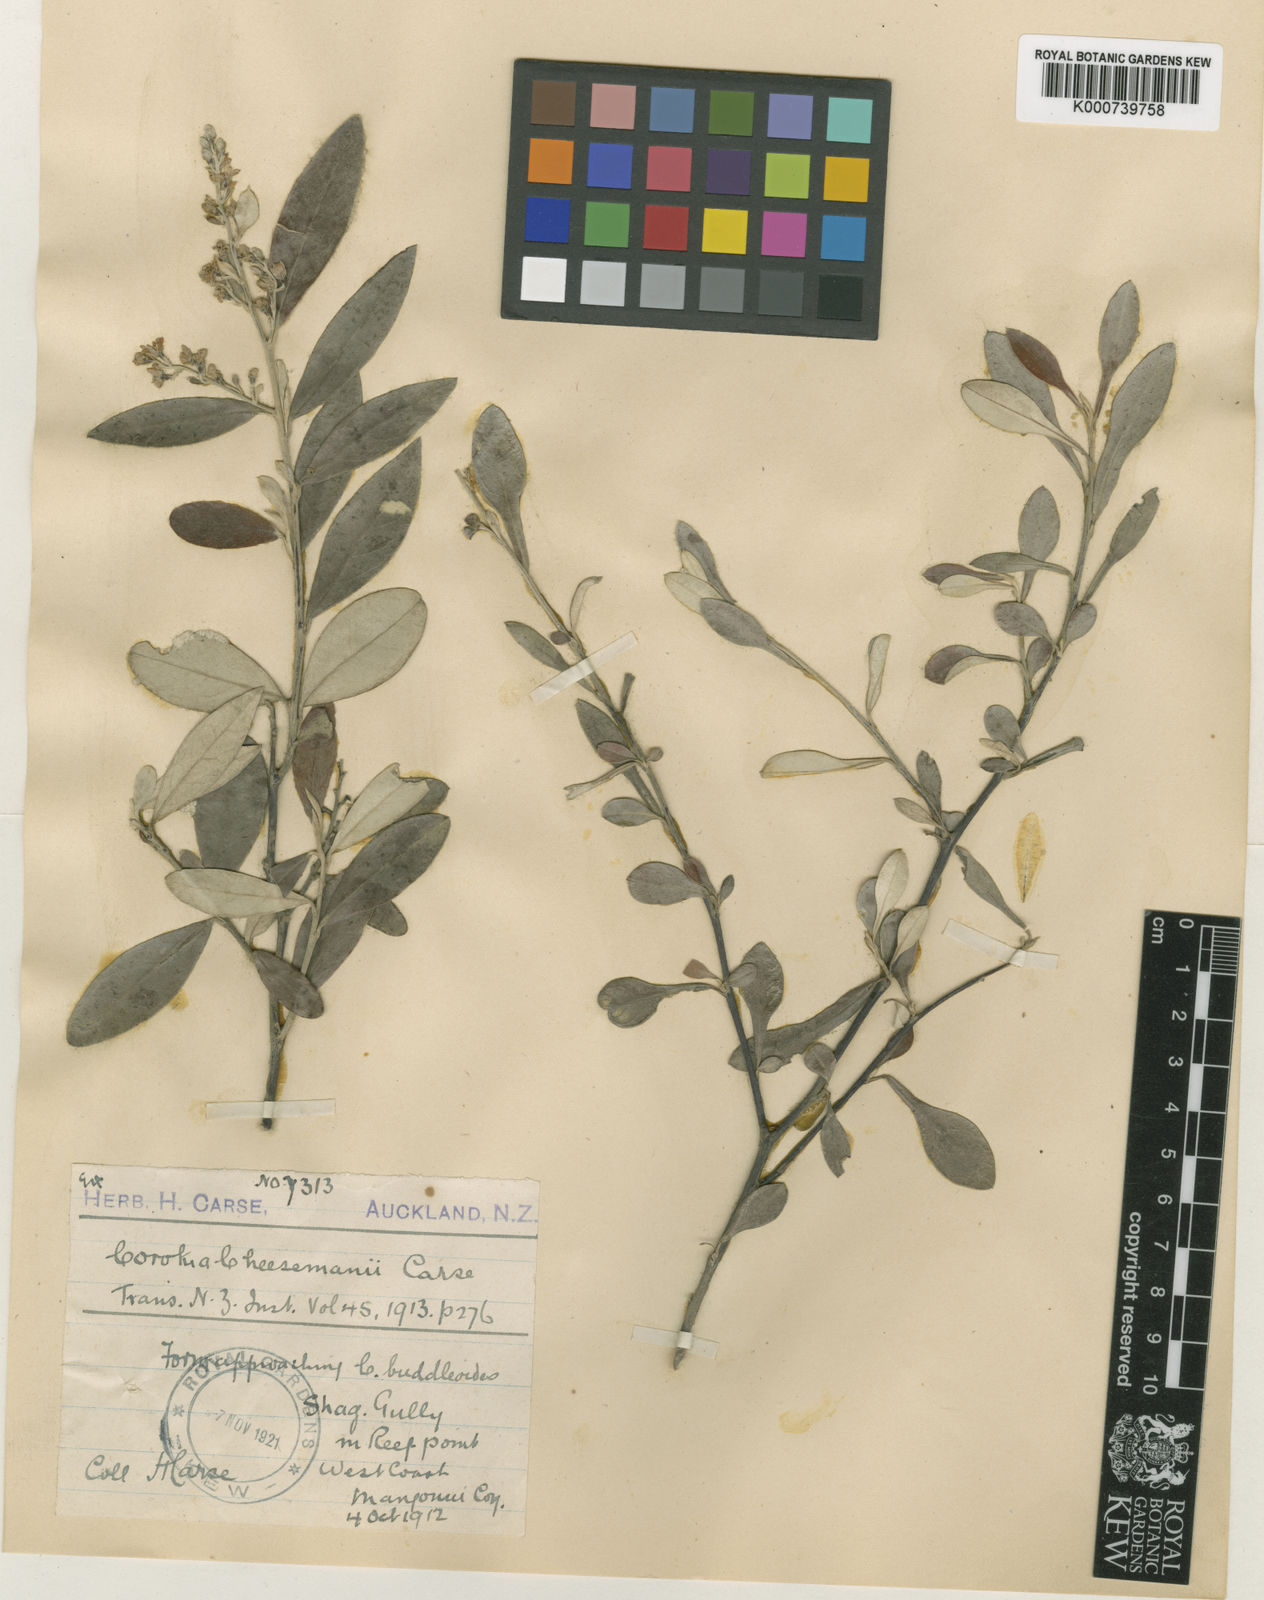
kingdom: Plantae
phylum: Tracheophyta
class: Magnoliopsida
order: Asterales
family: Argophyllaceae
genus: Corokia
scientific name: Corokia virgata
